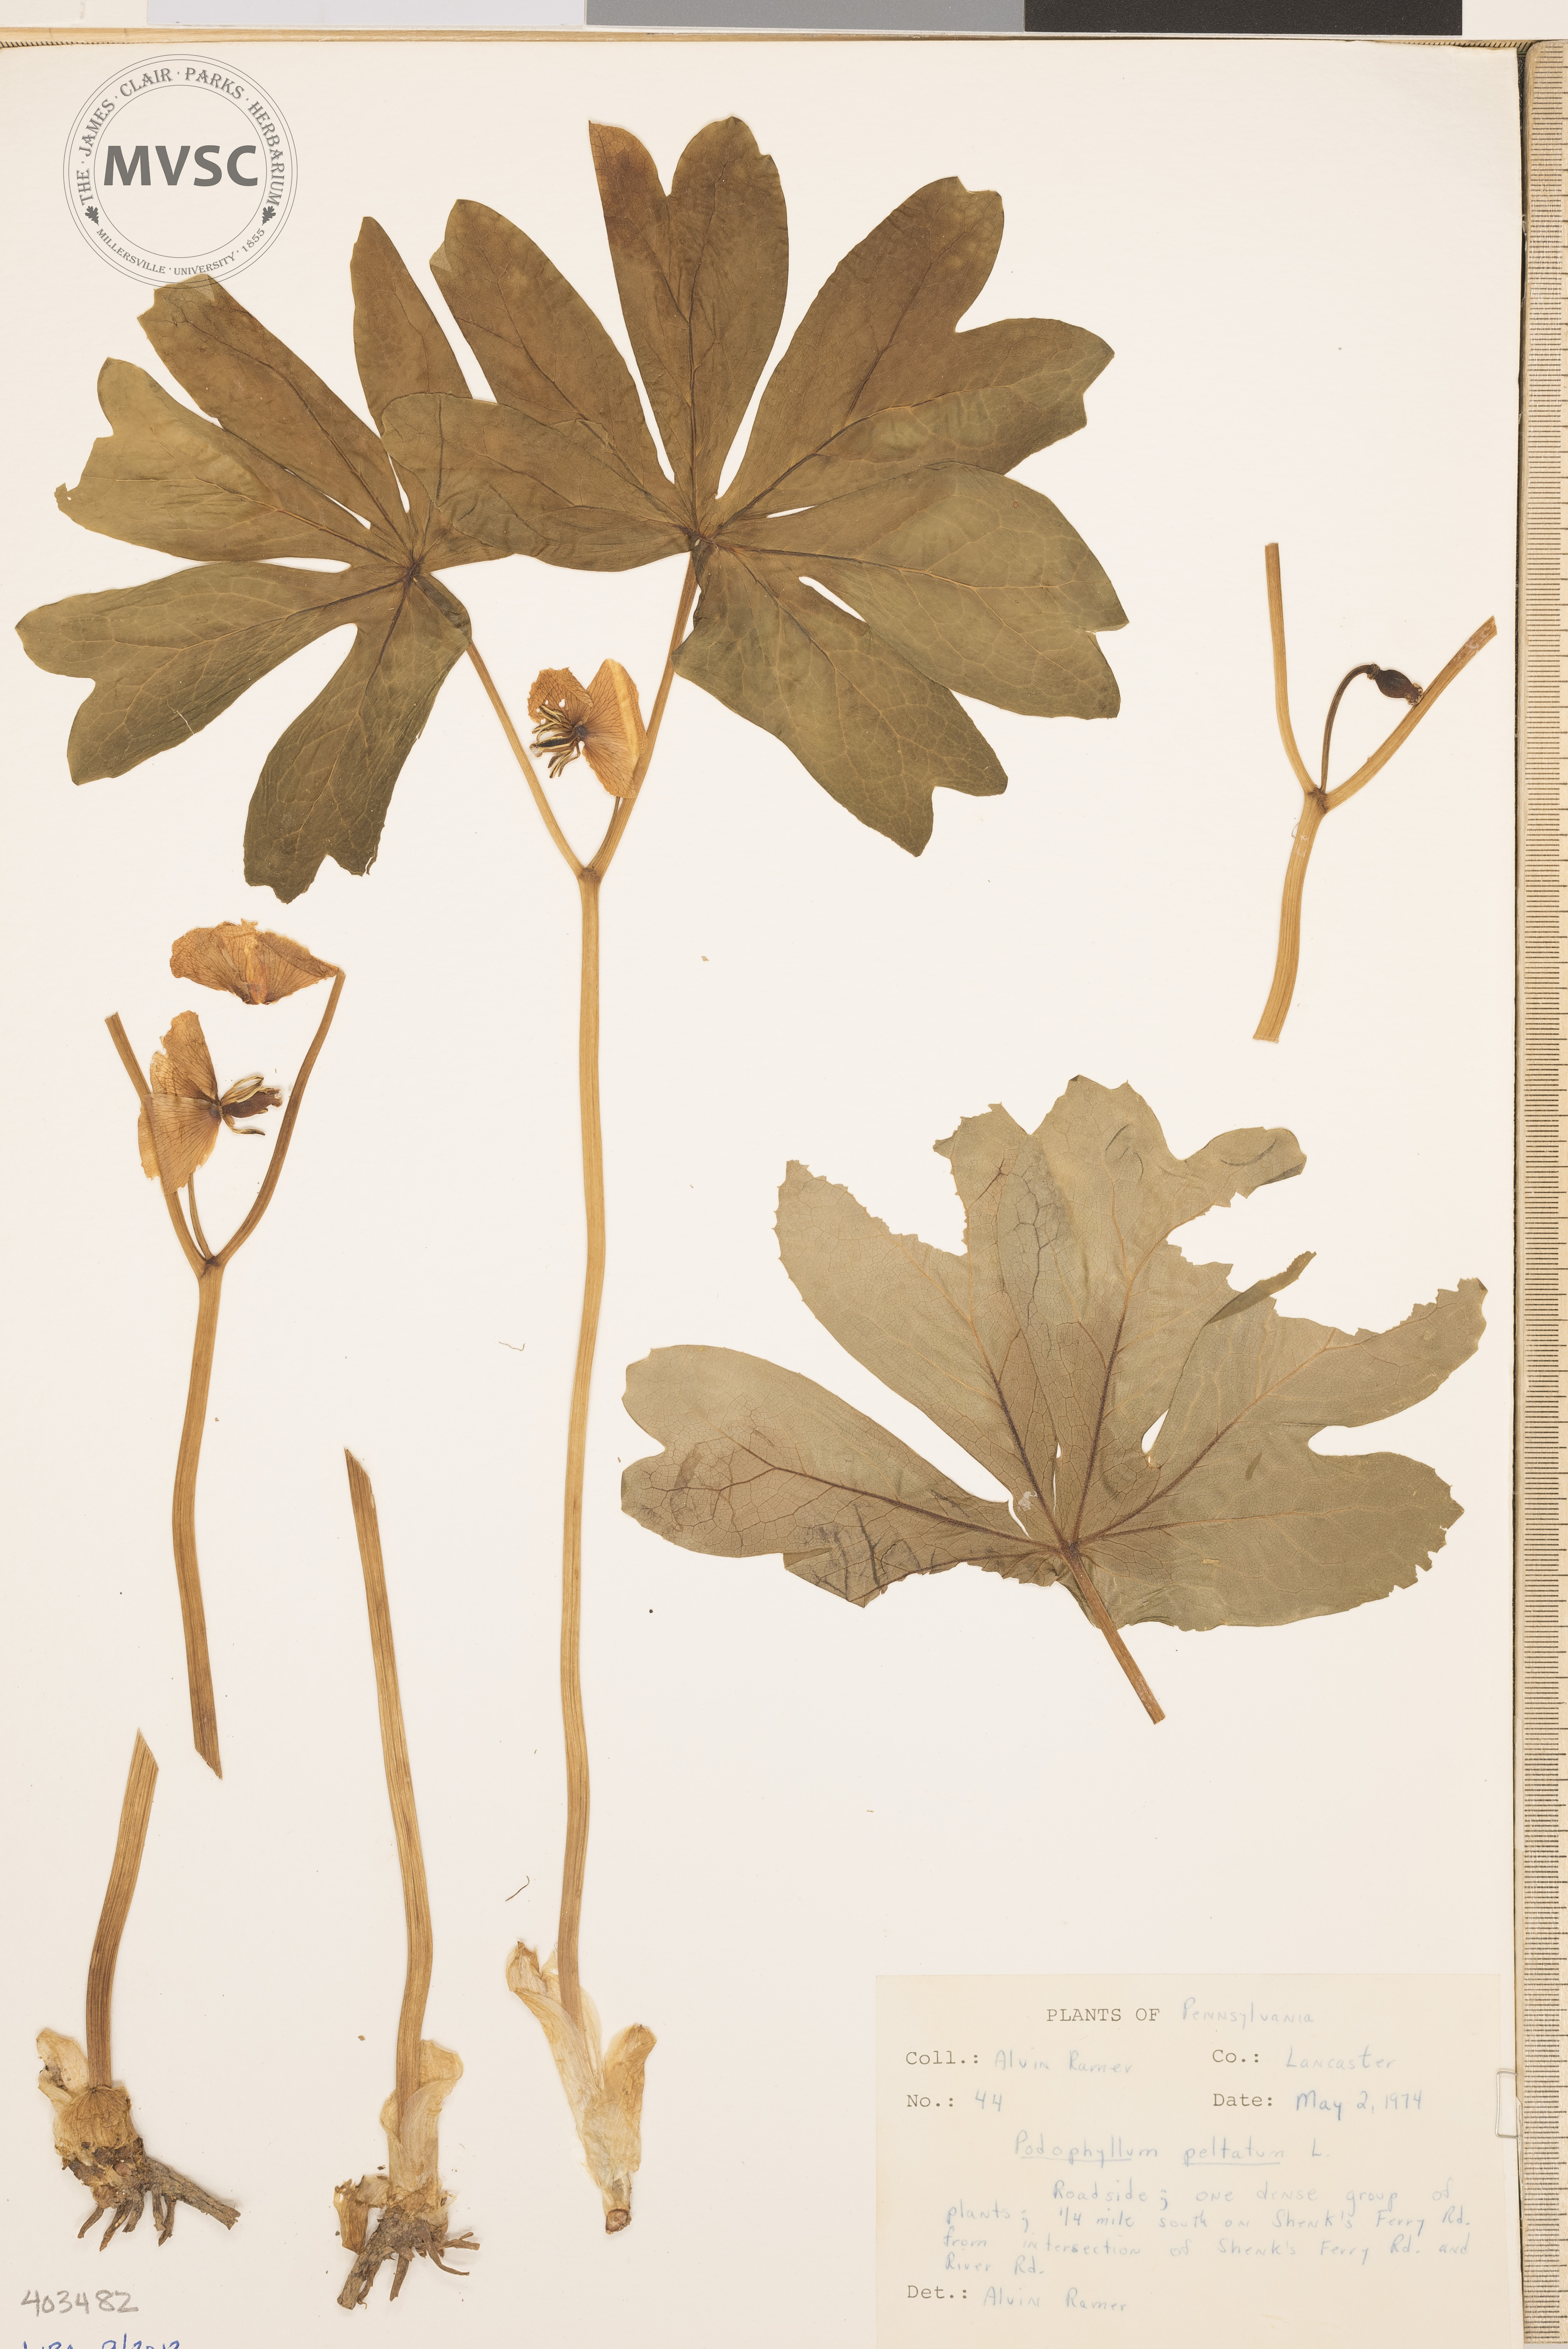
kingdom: Plantae
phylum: Tracheophyta
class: Magnoliopsida
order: Ranunculales
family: Berberidaceae
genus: Podophyllum
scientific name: Podophyllum peltatum
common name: May-Apple
